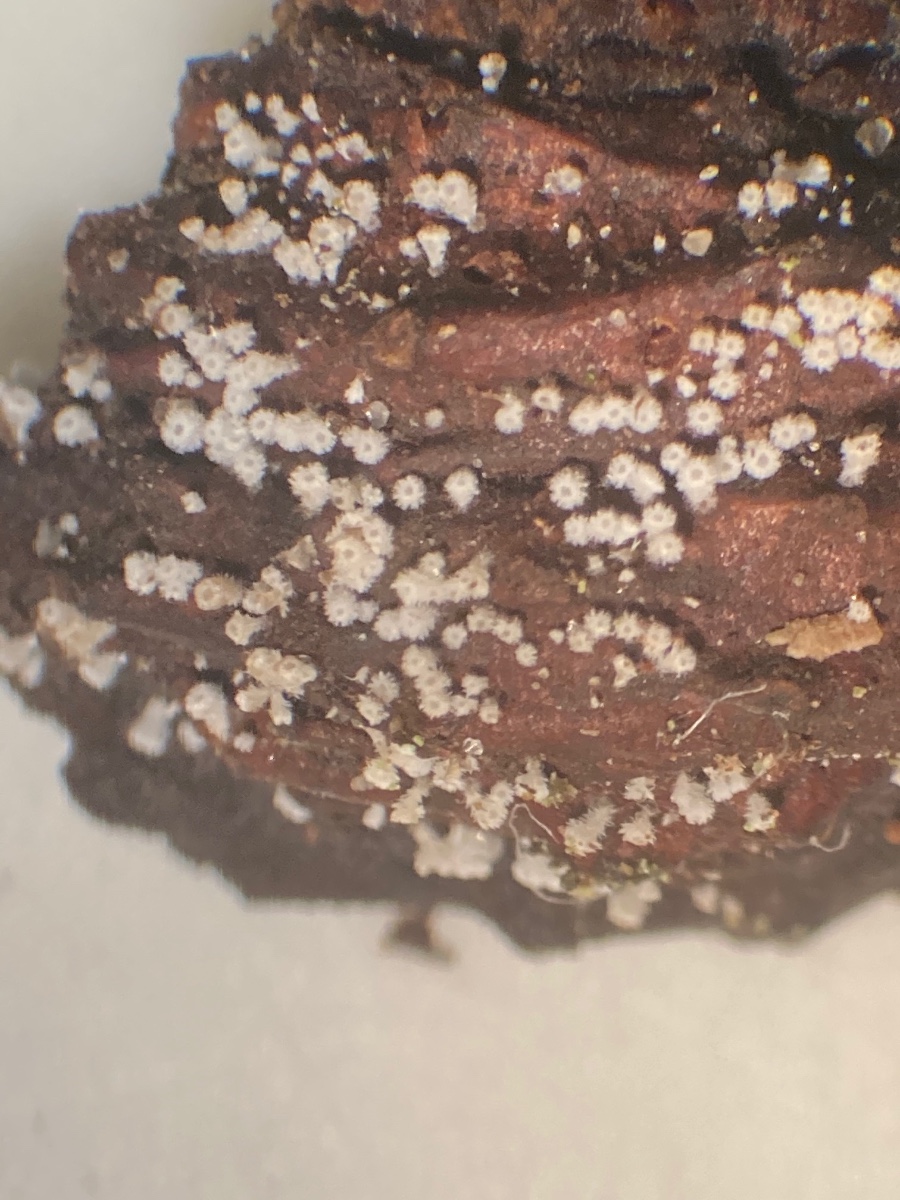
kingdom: Fungi
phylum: Ascomycota
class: Leotiomycetes
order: Helotiales
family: Lachnaceae
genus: Lachnum
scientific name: Lachnum virgineum
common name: jomfru-frynseskive
